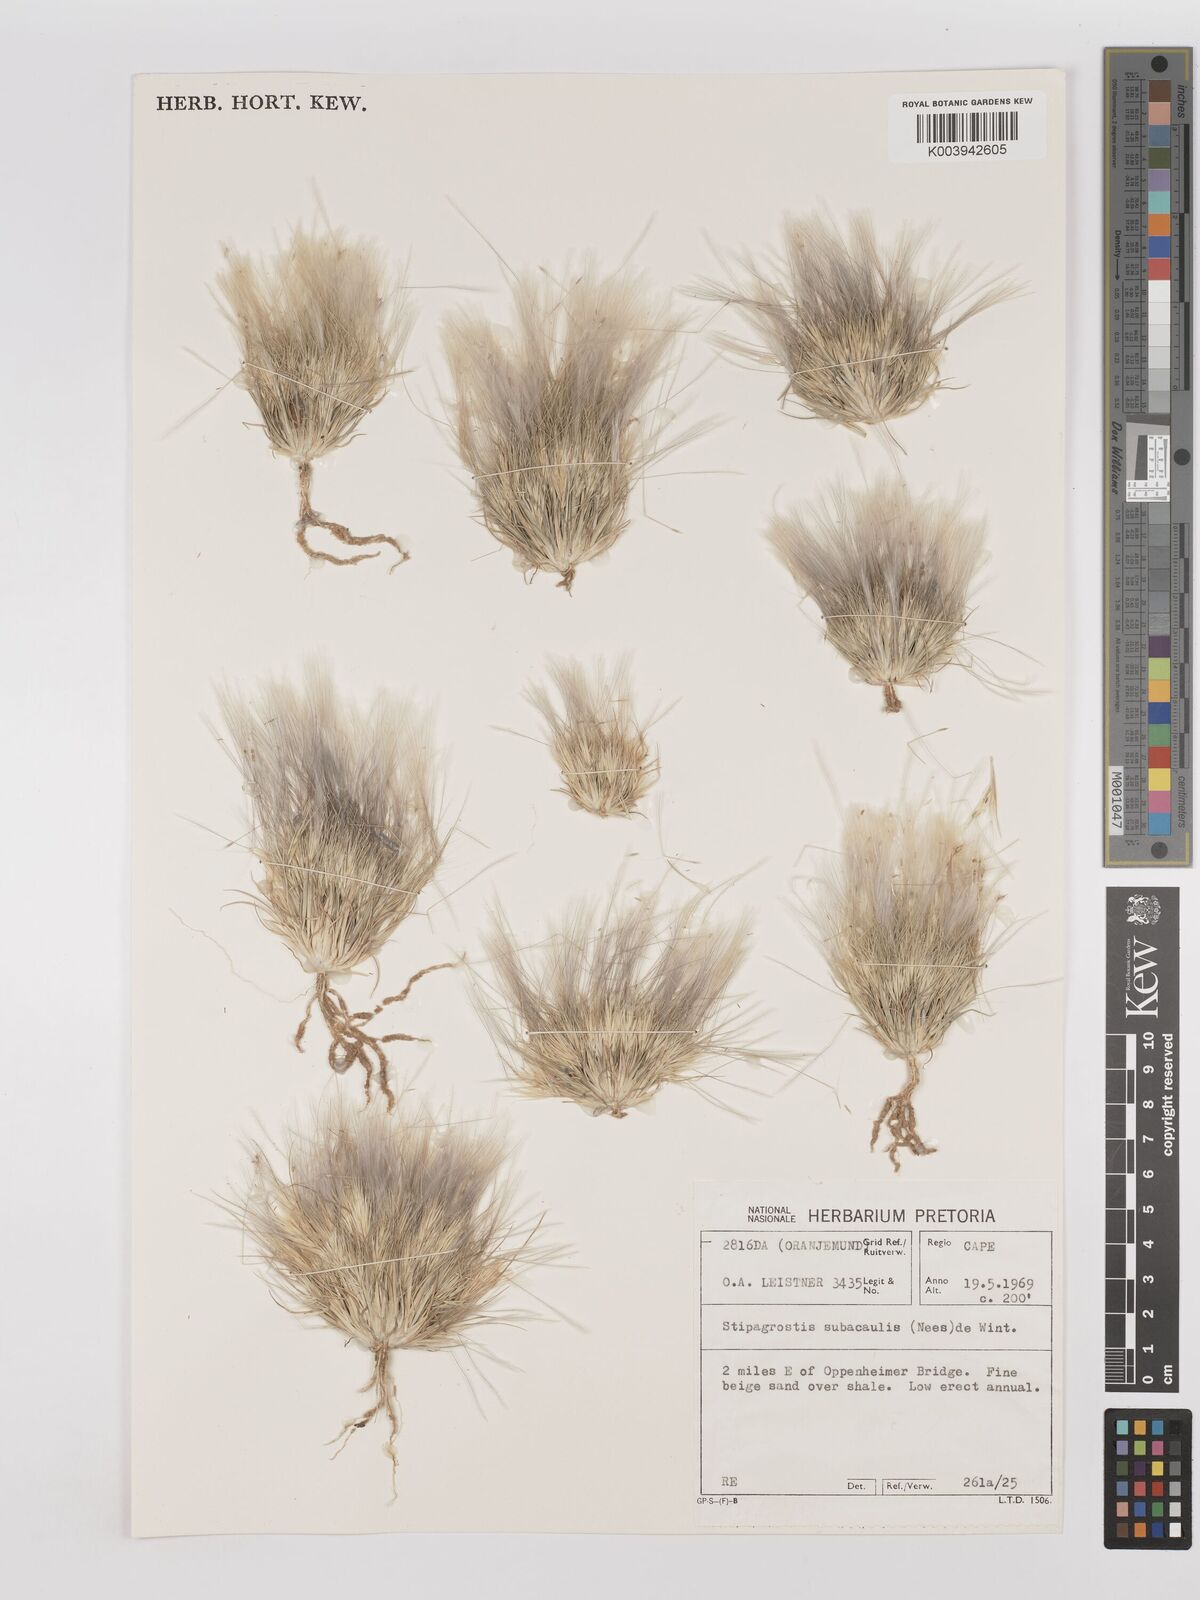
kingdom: Plantae
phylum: Tracheophyta
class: Liliopsida
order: Poales
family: Poaceae
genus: Stipagrostis
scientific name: Stipagrostis subacaulis
